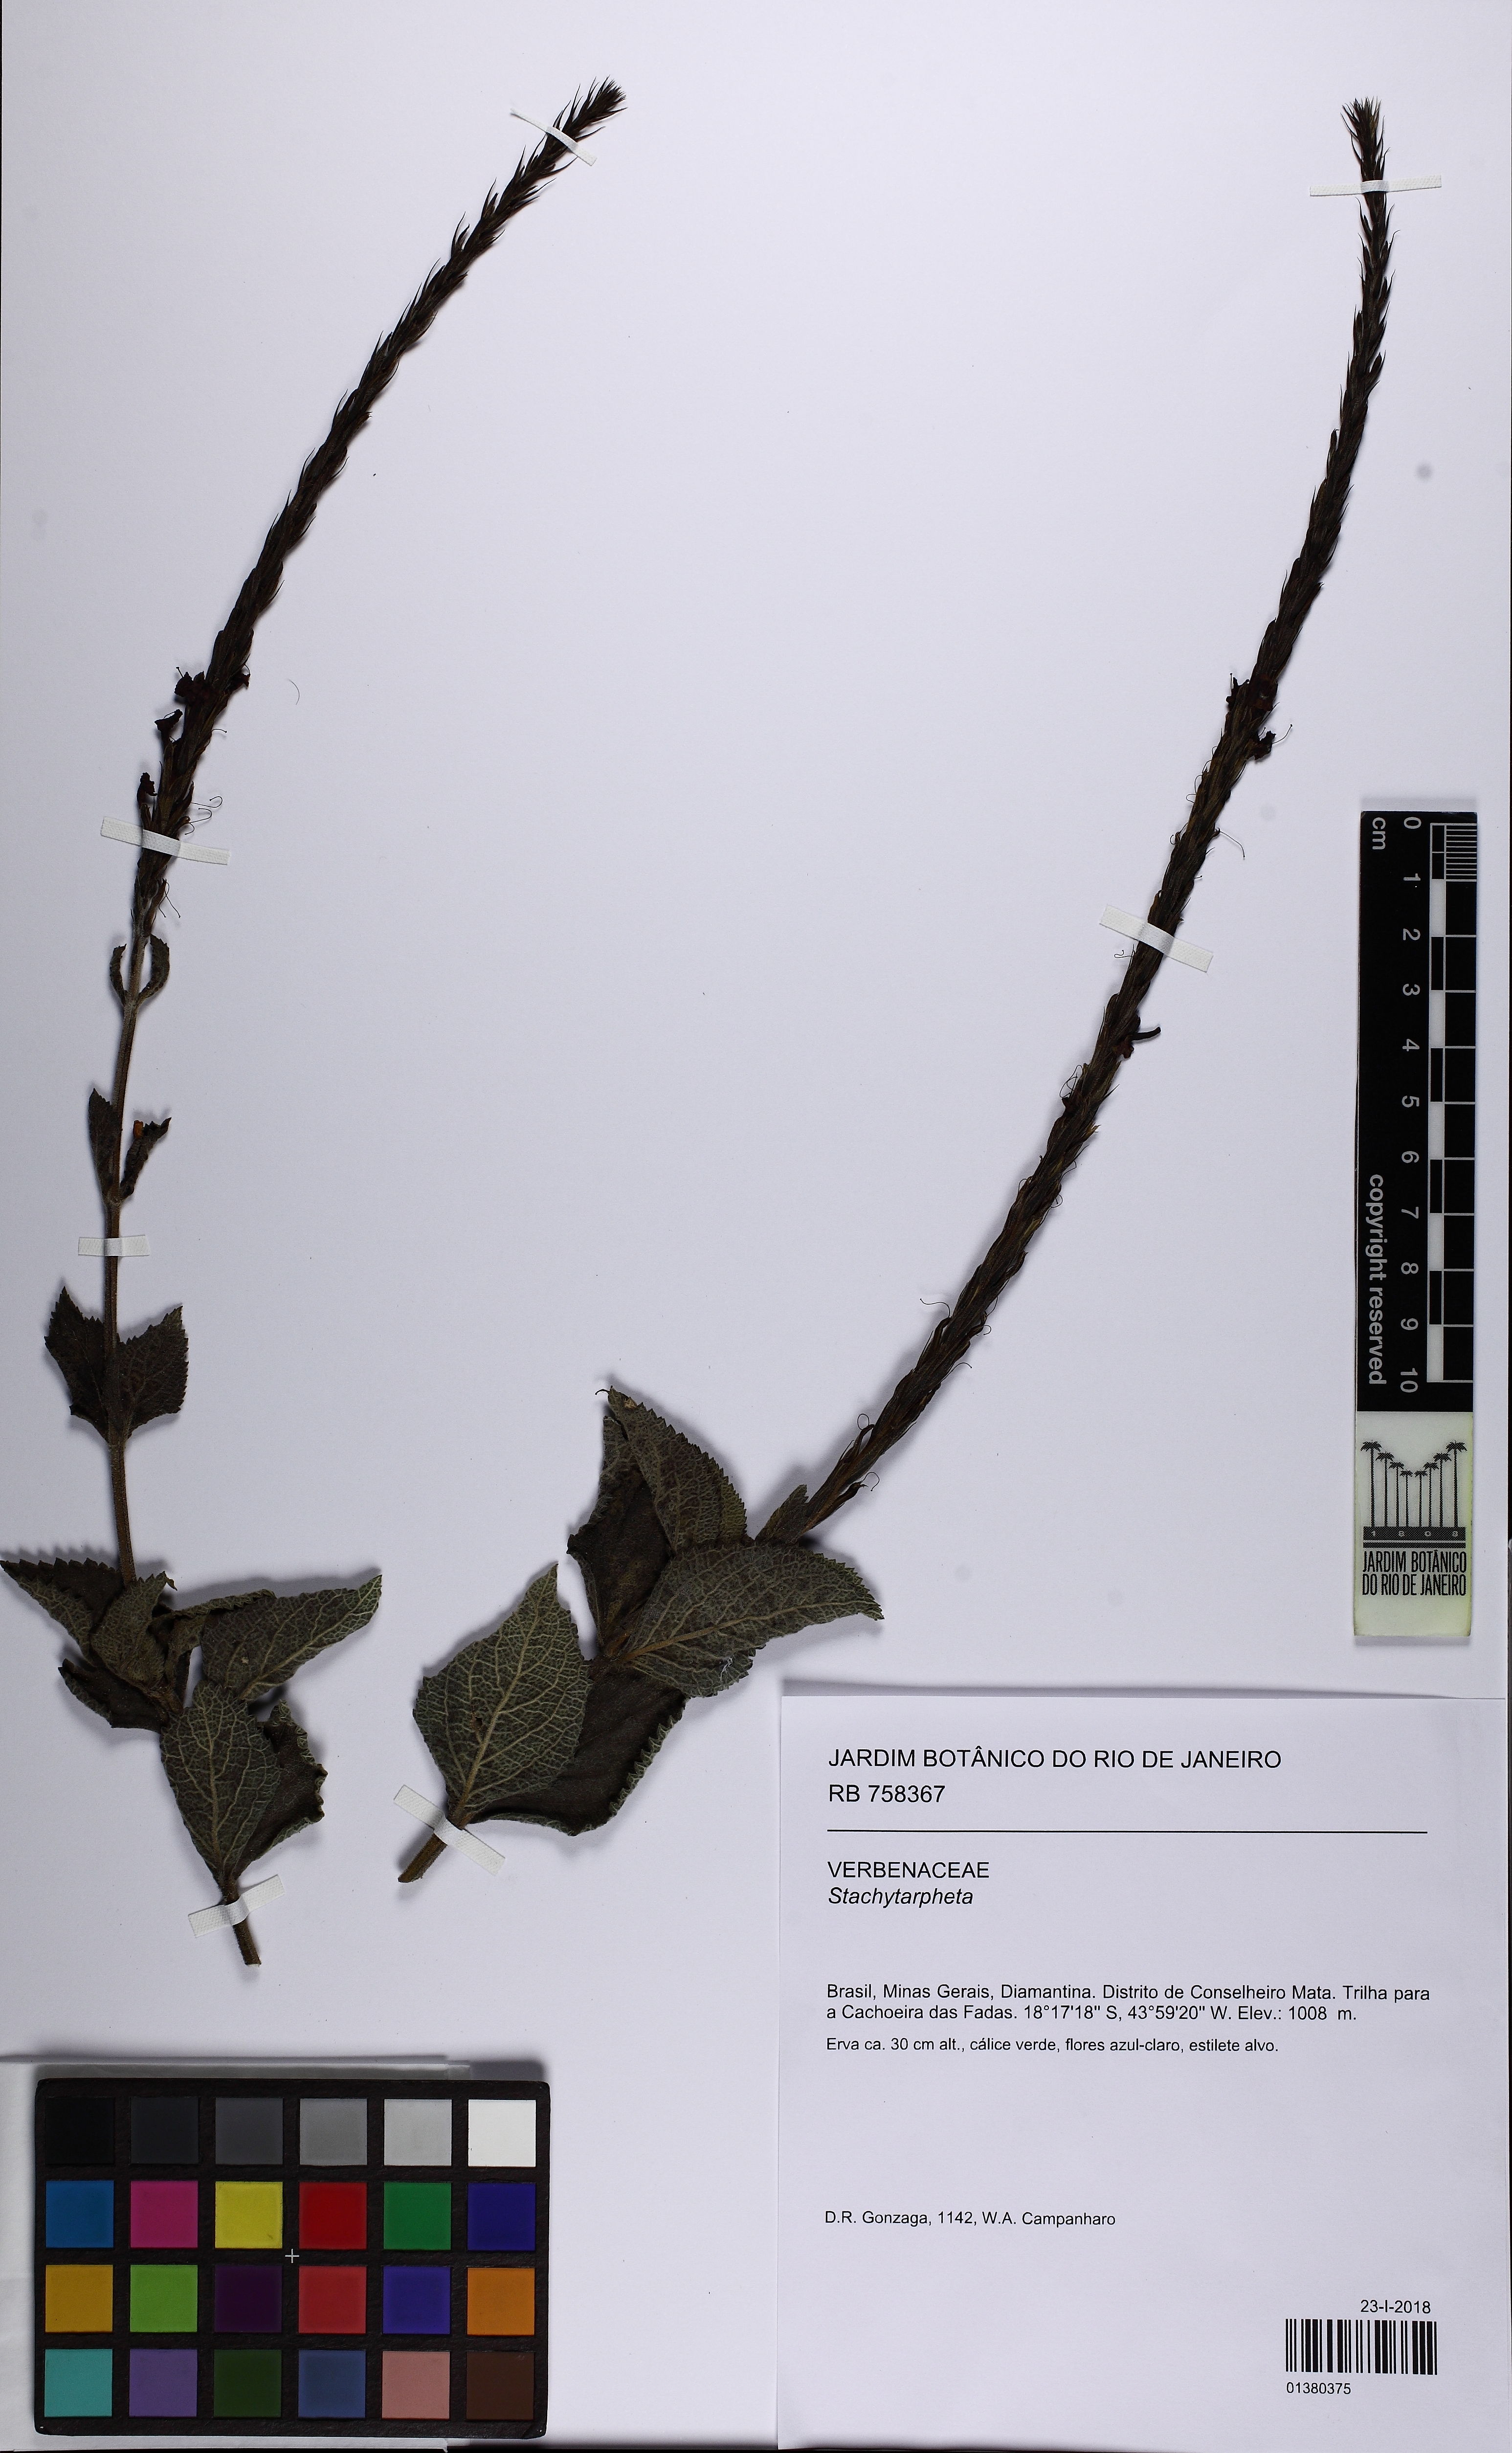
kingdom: Plantae
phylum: Tracheophyta
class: Magnoliopsida
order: Lamiales
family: Verbenaceae
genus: Stachytarpheta
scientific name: Stachytarpheta reticulata
